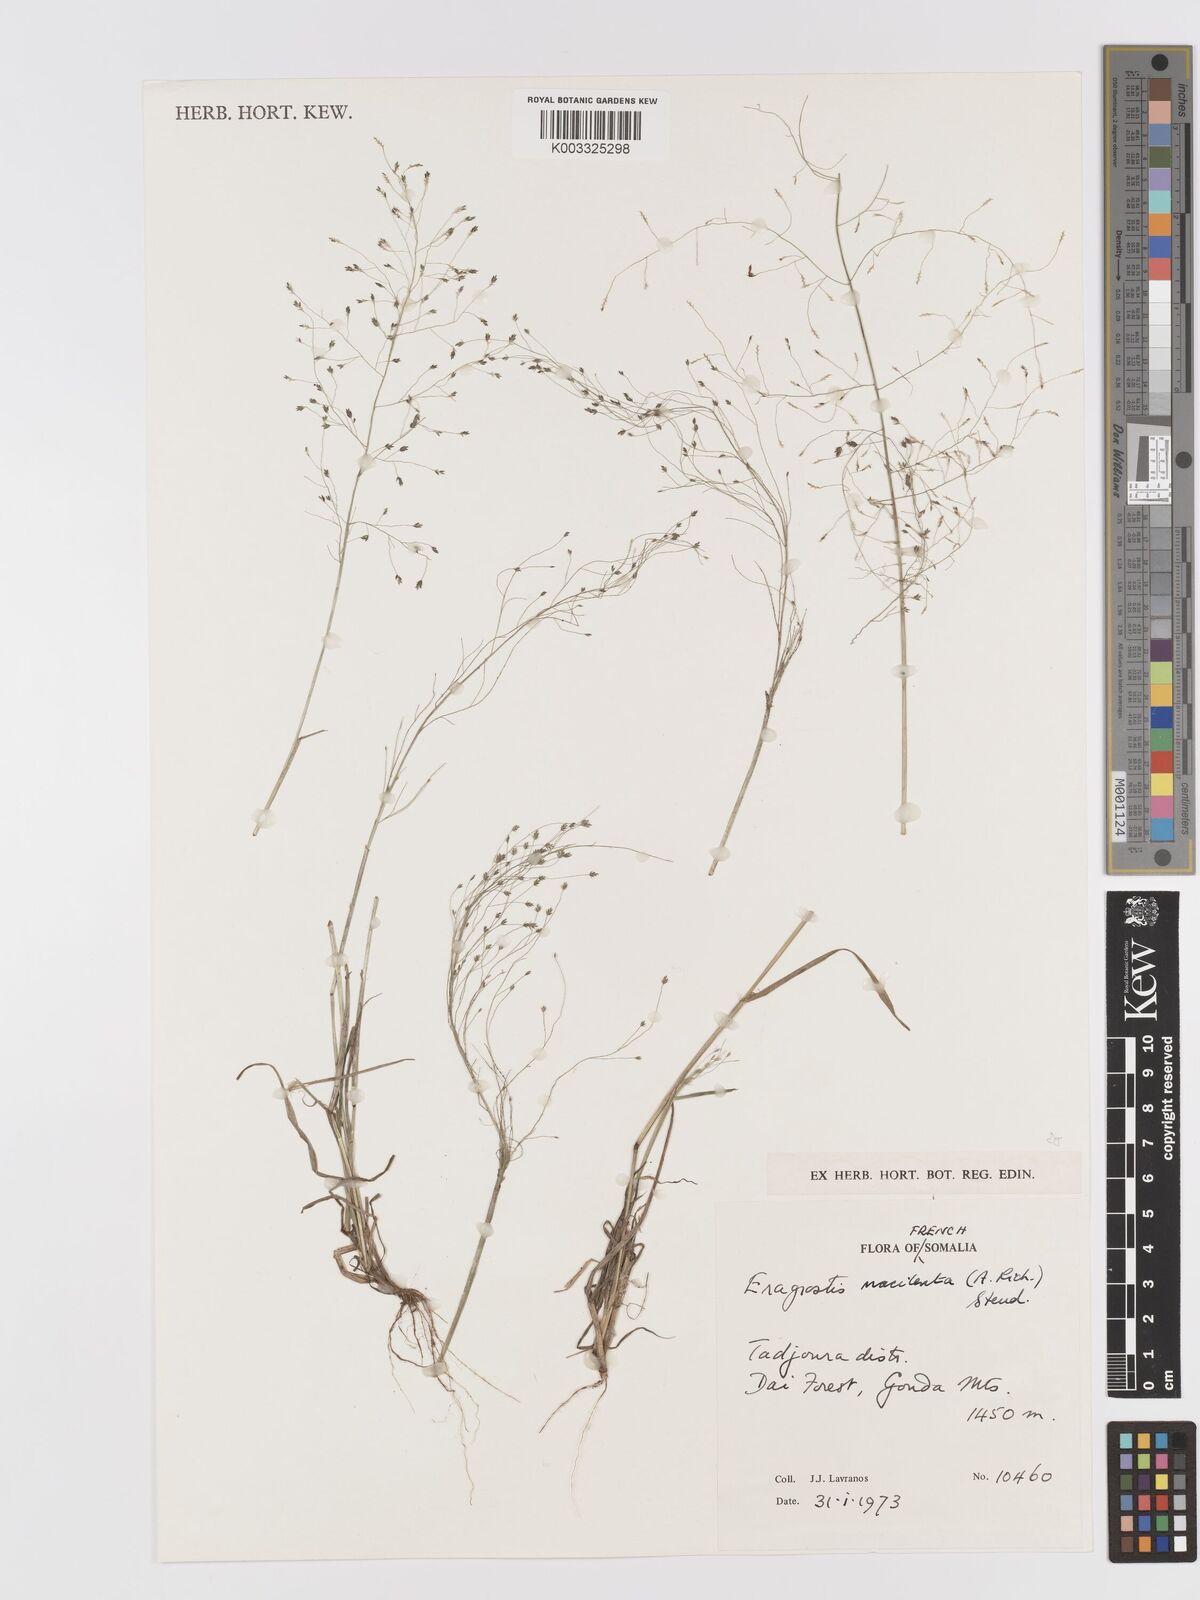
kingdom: Plantae
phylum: Tracheophyta
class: Liliopsida
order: Poales
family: Poaceae
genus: Eragrostis
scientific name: Eragrostis macilenta
